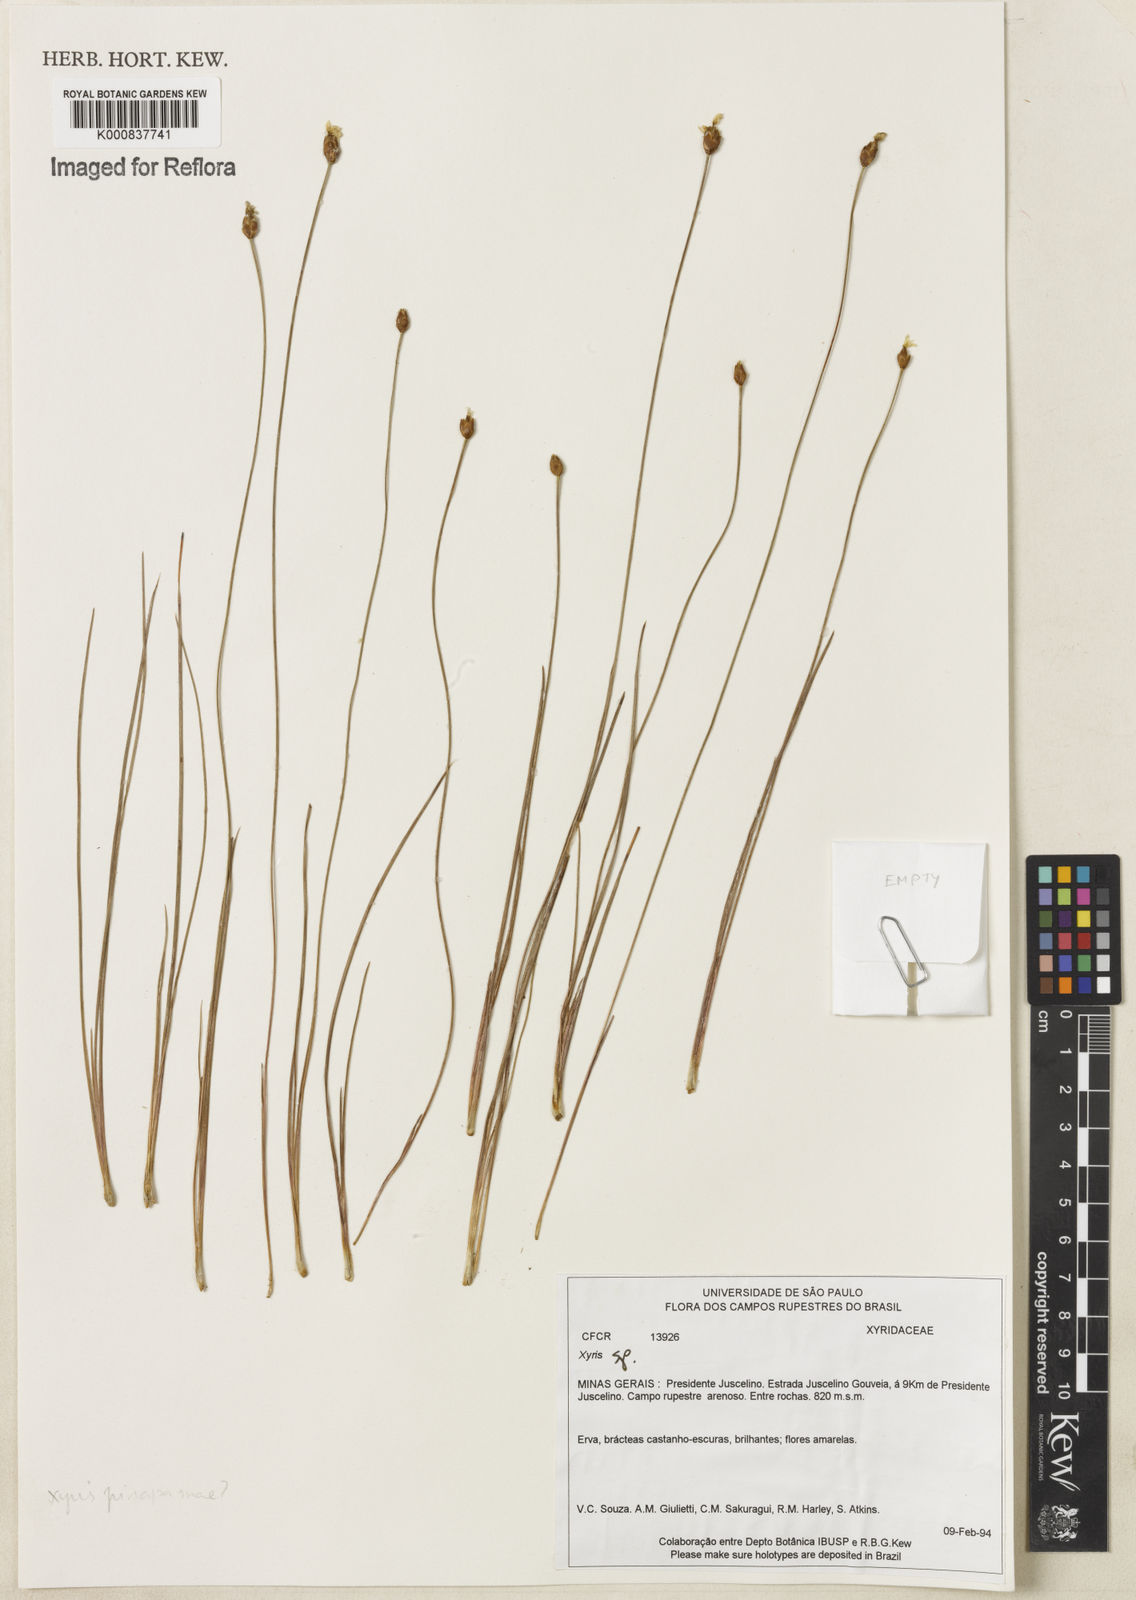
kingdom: Plantae
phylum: Tracheophyta
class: Liliopsida
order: Poales
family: Xyridaceae
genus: Xyris
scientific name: Xyris
